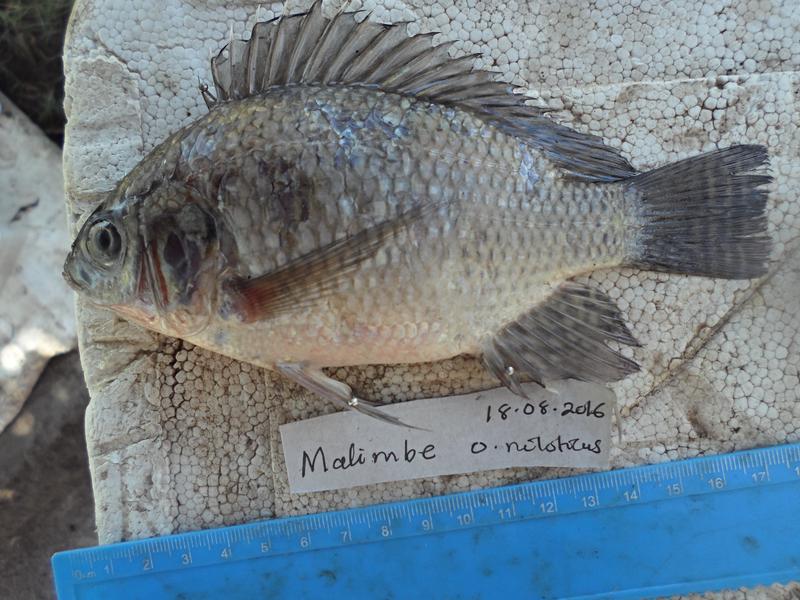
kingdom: Animalia
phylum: Chordata
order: Perciformes
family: Cichlidae
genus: Oreochromis
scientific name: Oreochromis niloticus
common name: Nile tilapia
